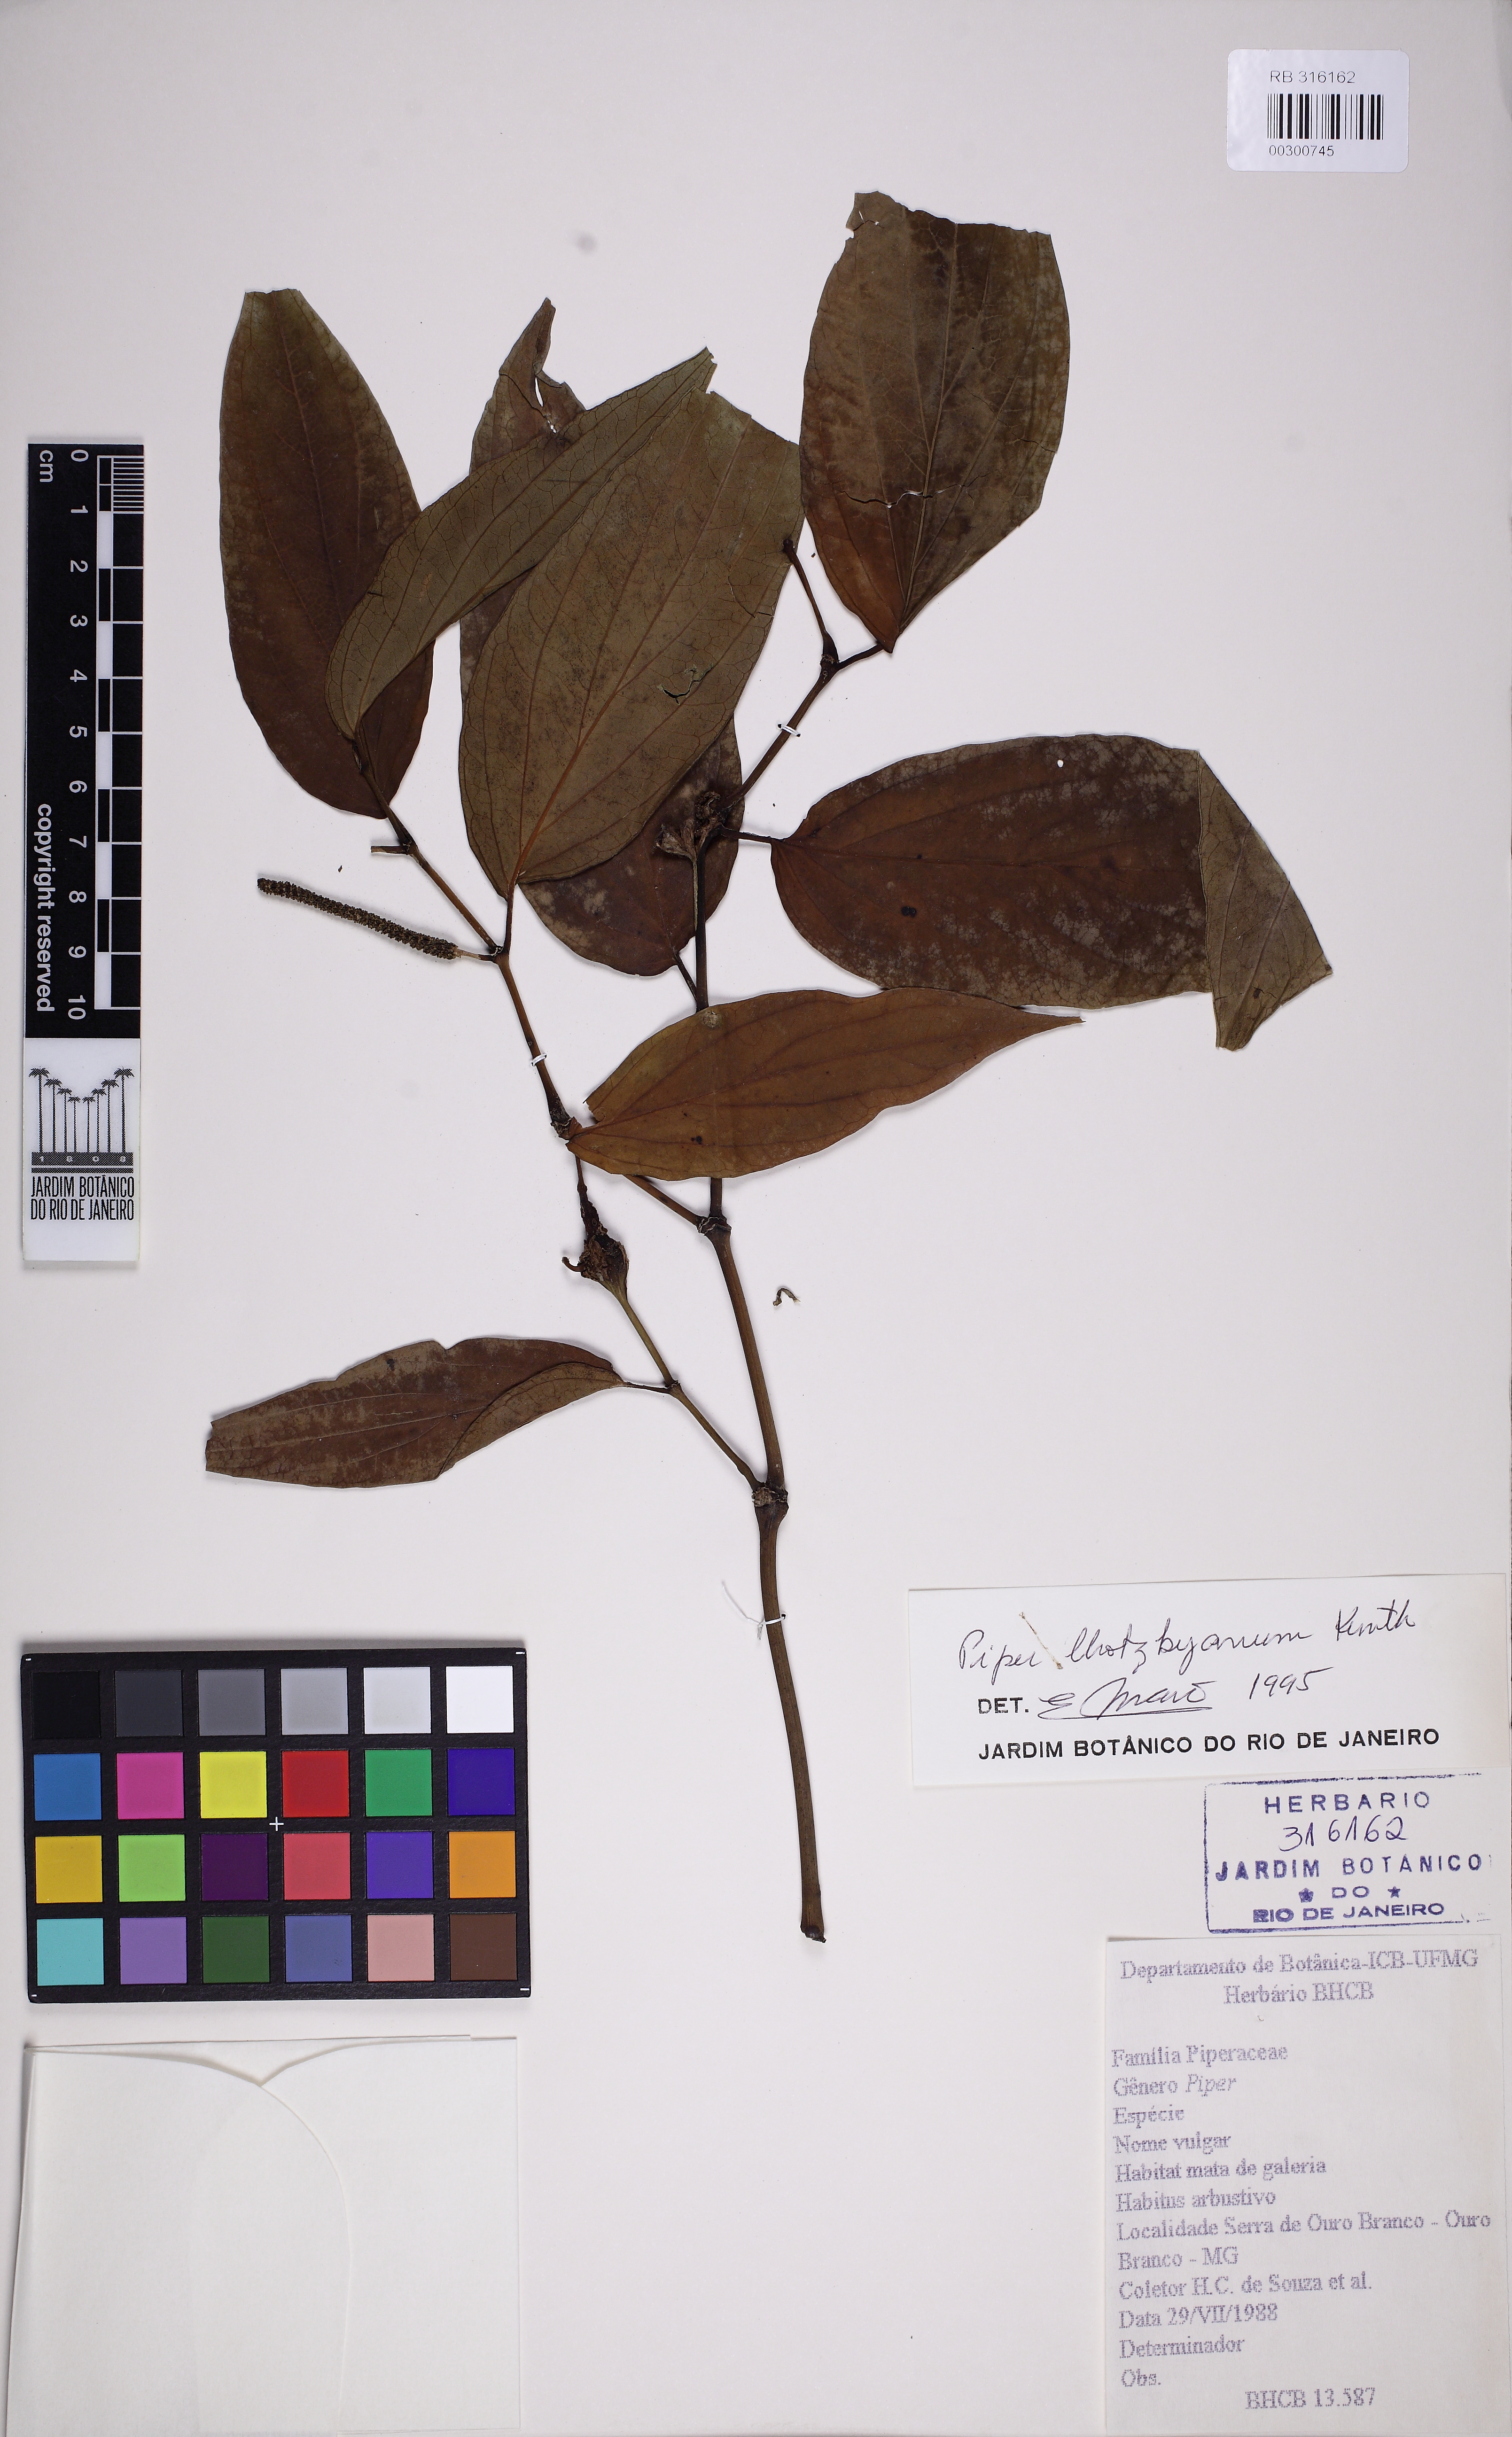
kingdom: Plantae
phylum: Tracheophyta
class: Magnoliopsida
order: Piperales
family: Piperaceae
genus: Piper
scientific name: Piper lhotzkyanum
